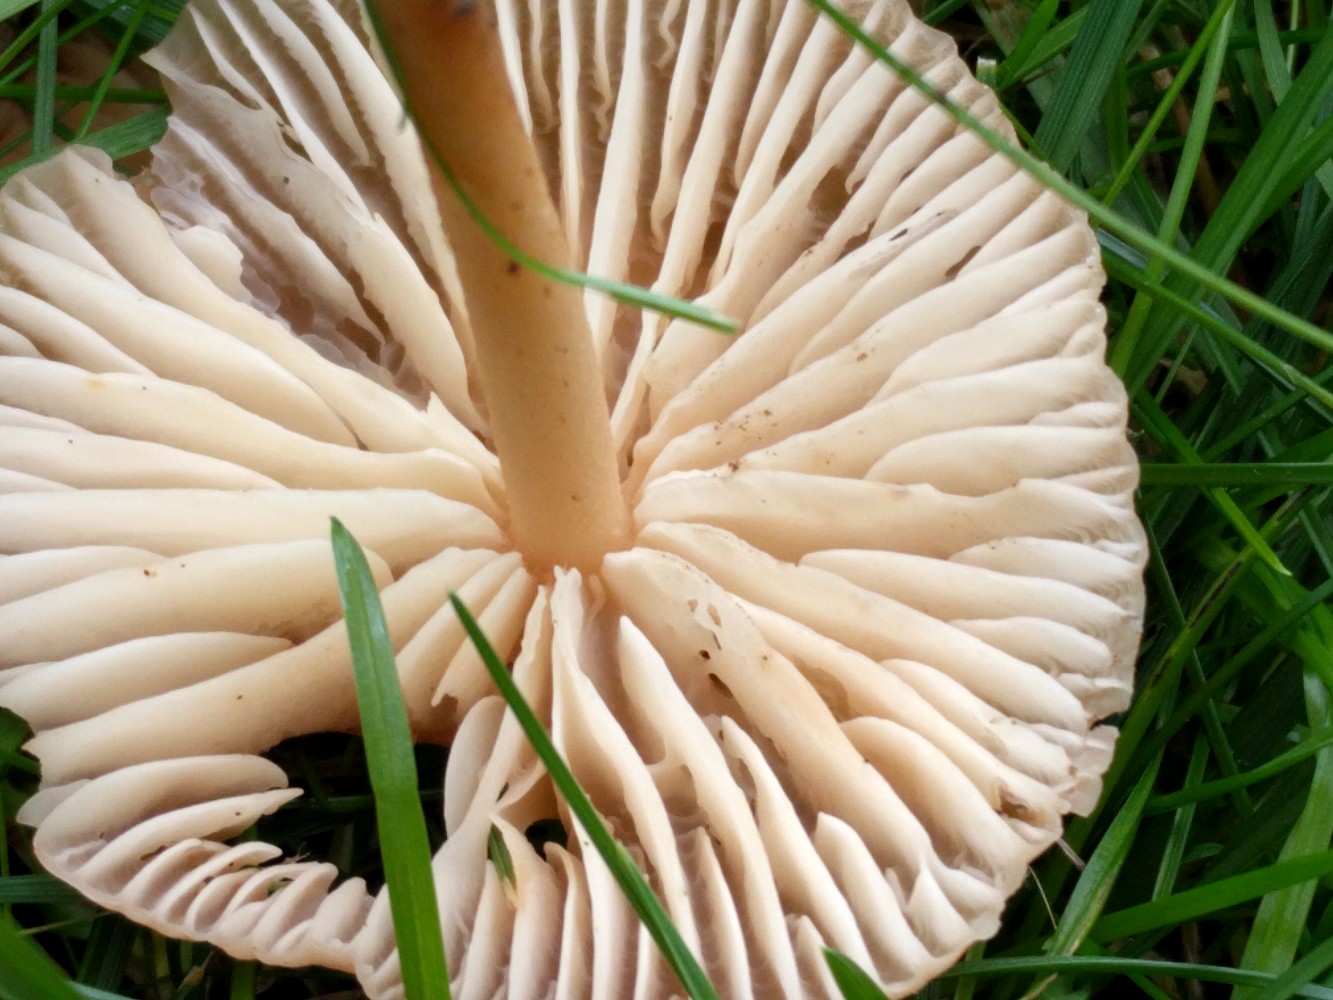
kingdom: Fungi
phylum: Basidiomycota
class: Agaricomycetes
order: Agaricales
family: Marasmiaceae
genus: Marasmius
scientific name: Marasmius oreades
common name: elledans-bruskhat
